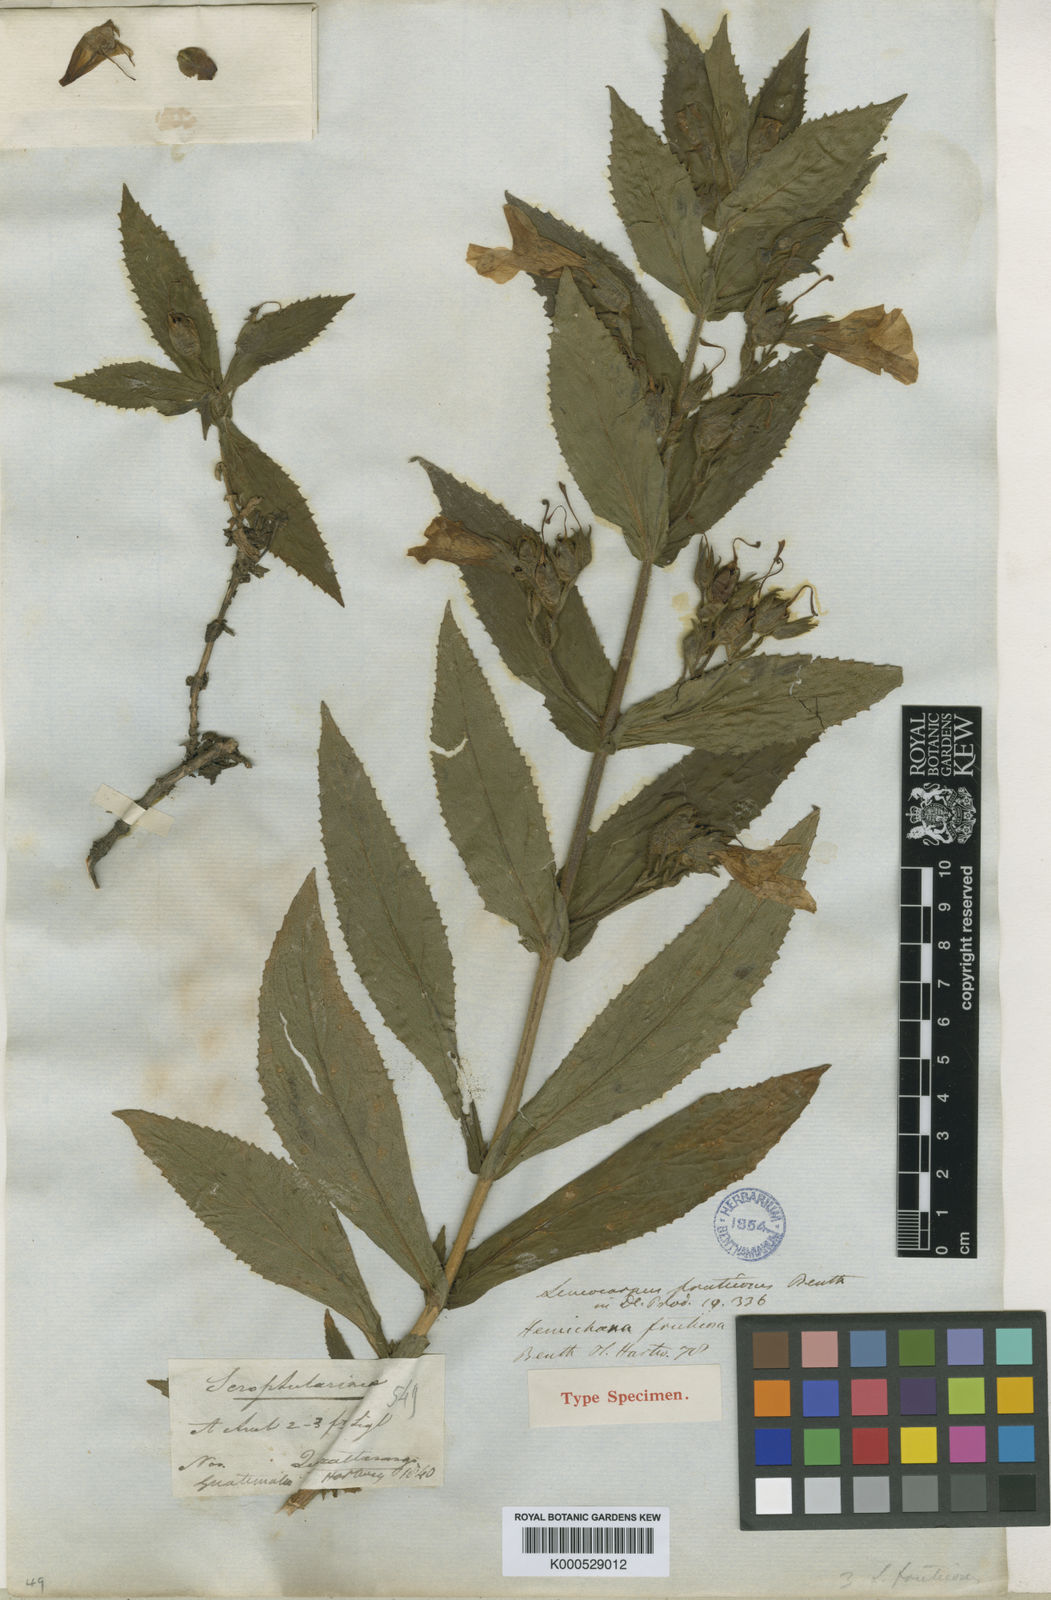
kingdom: Plantae
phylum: Tracheophyta
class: Magnoliopsida
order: Lamiales
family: Phrymaceae
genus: Hemichaena
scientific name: Hemichaena fruticosa
